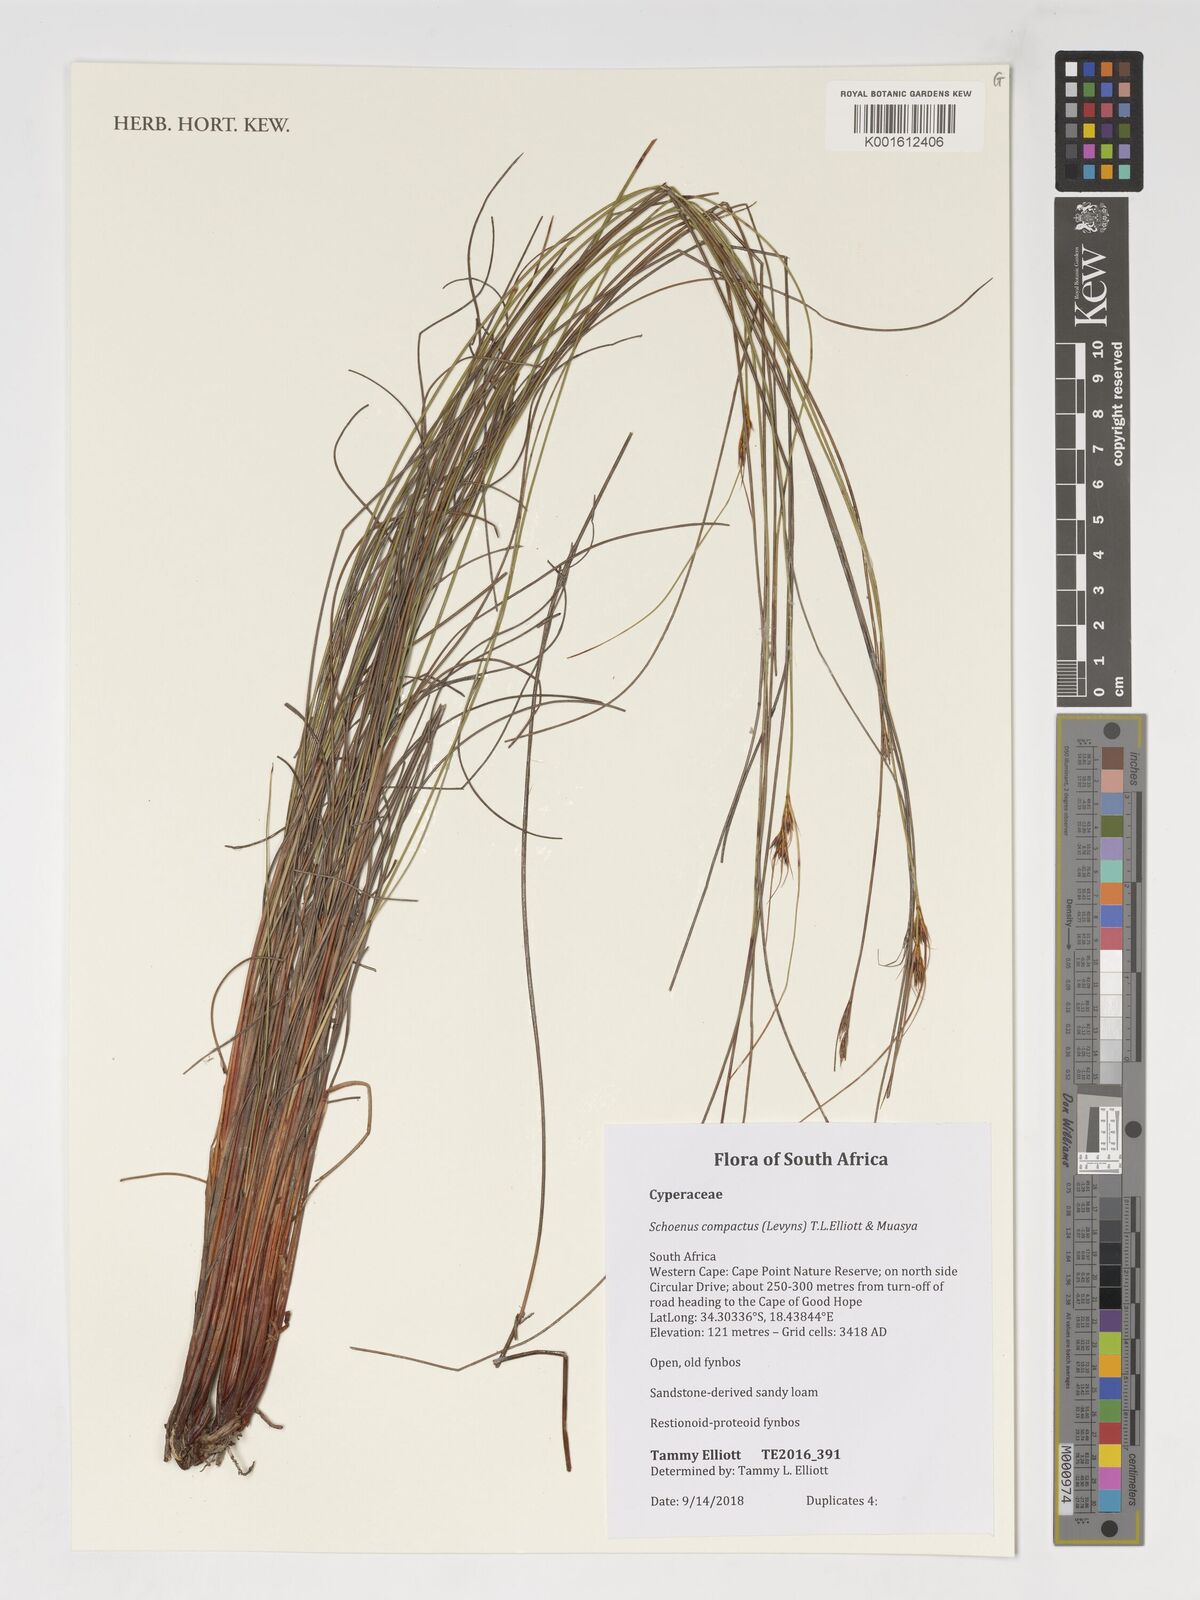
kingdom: Plantae
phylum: Tracheophyta
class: Liliopsida
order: Poales
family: Cyperaceae
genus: Schoenus
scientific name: Schoenus compactus
